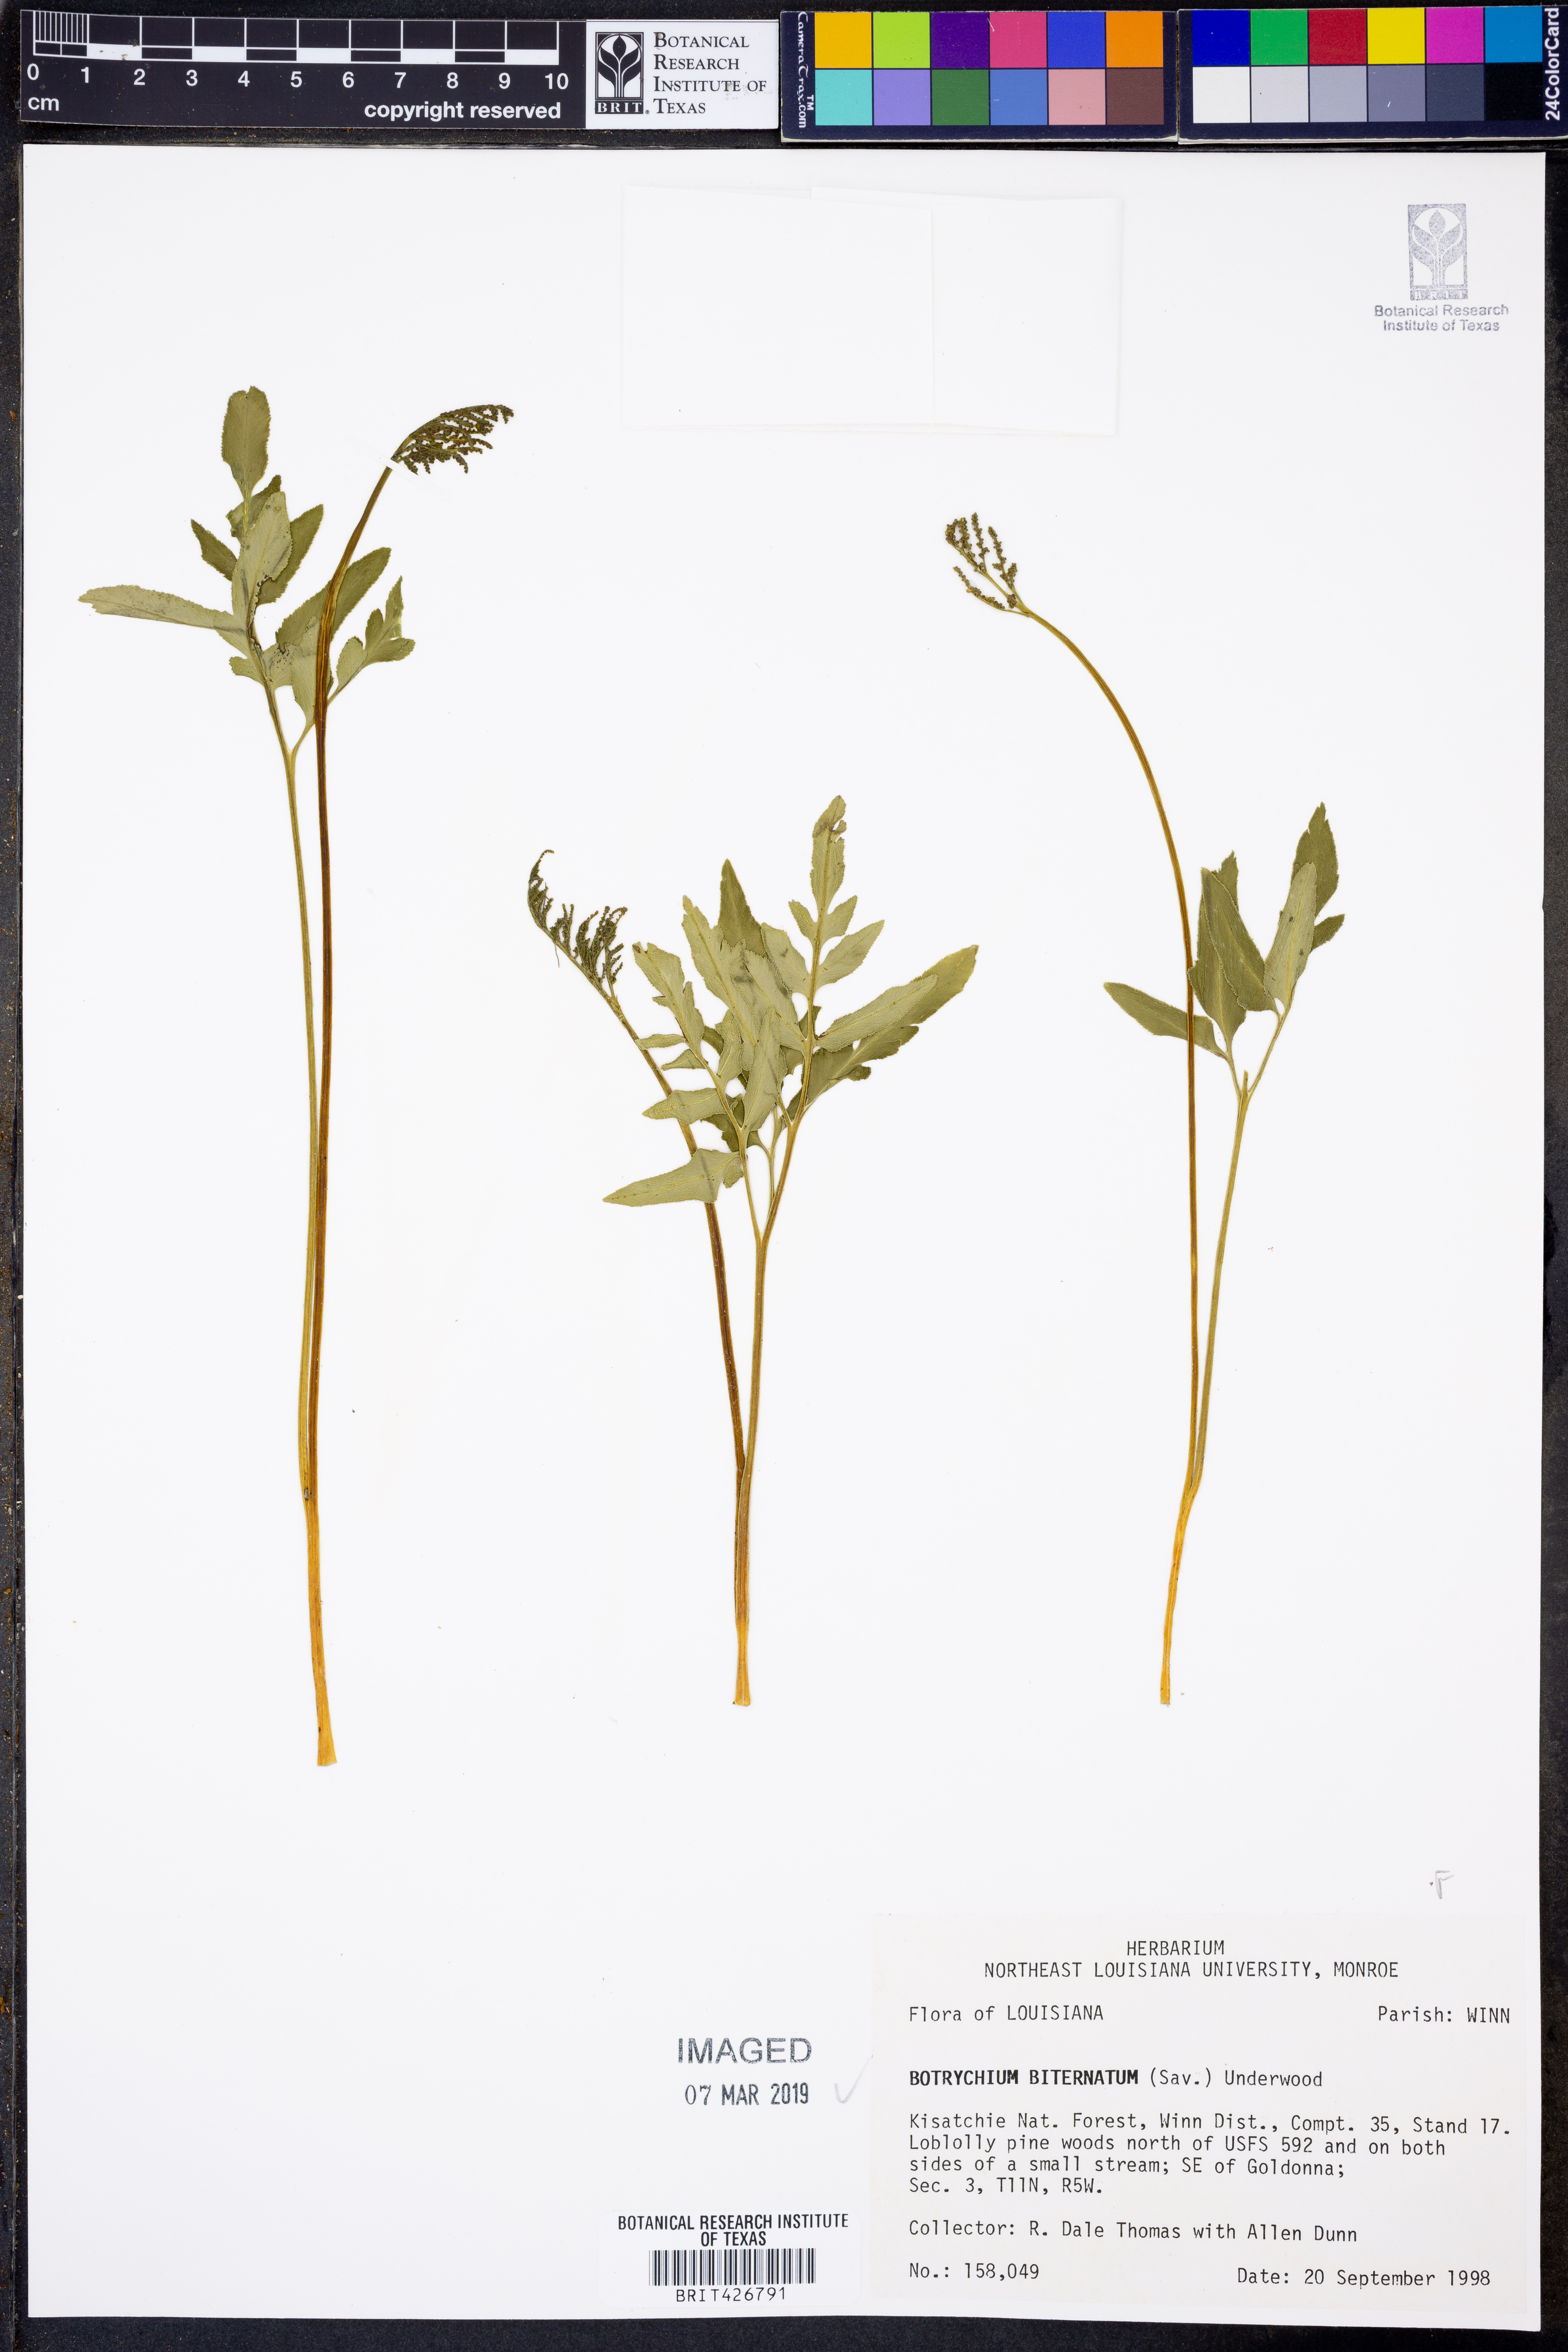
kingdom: Plantae
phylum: Tracheophyta
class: Polypodiopsida
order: Ophioglossales
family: Ophioglossaceae
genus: Sceptridium
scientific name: Sceptridium biternatum
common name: Sparse-lobed grapefern
